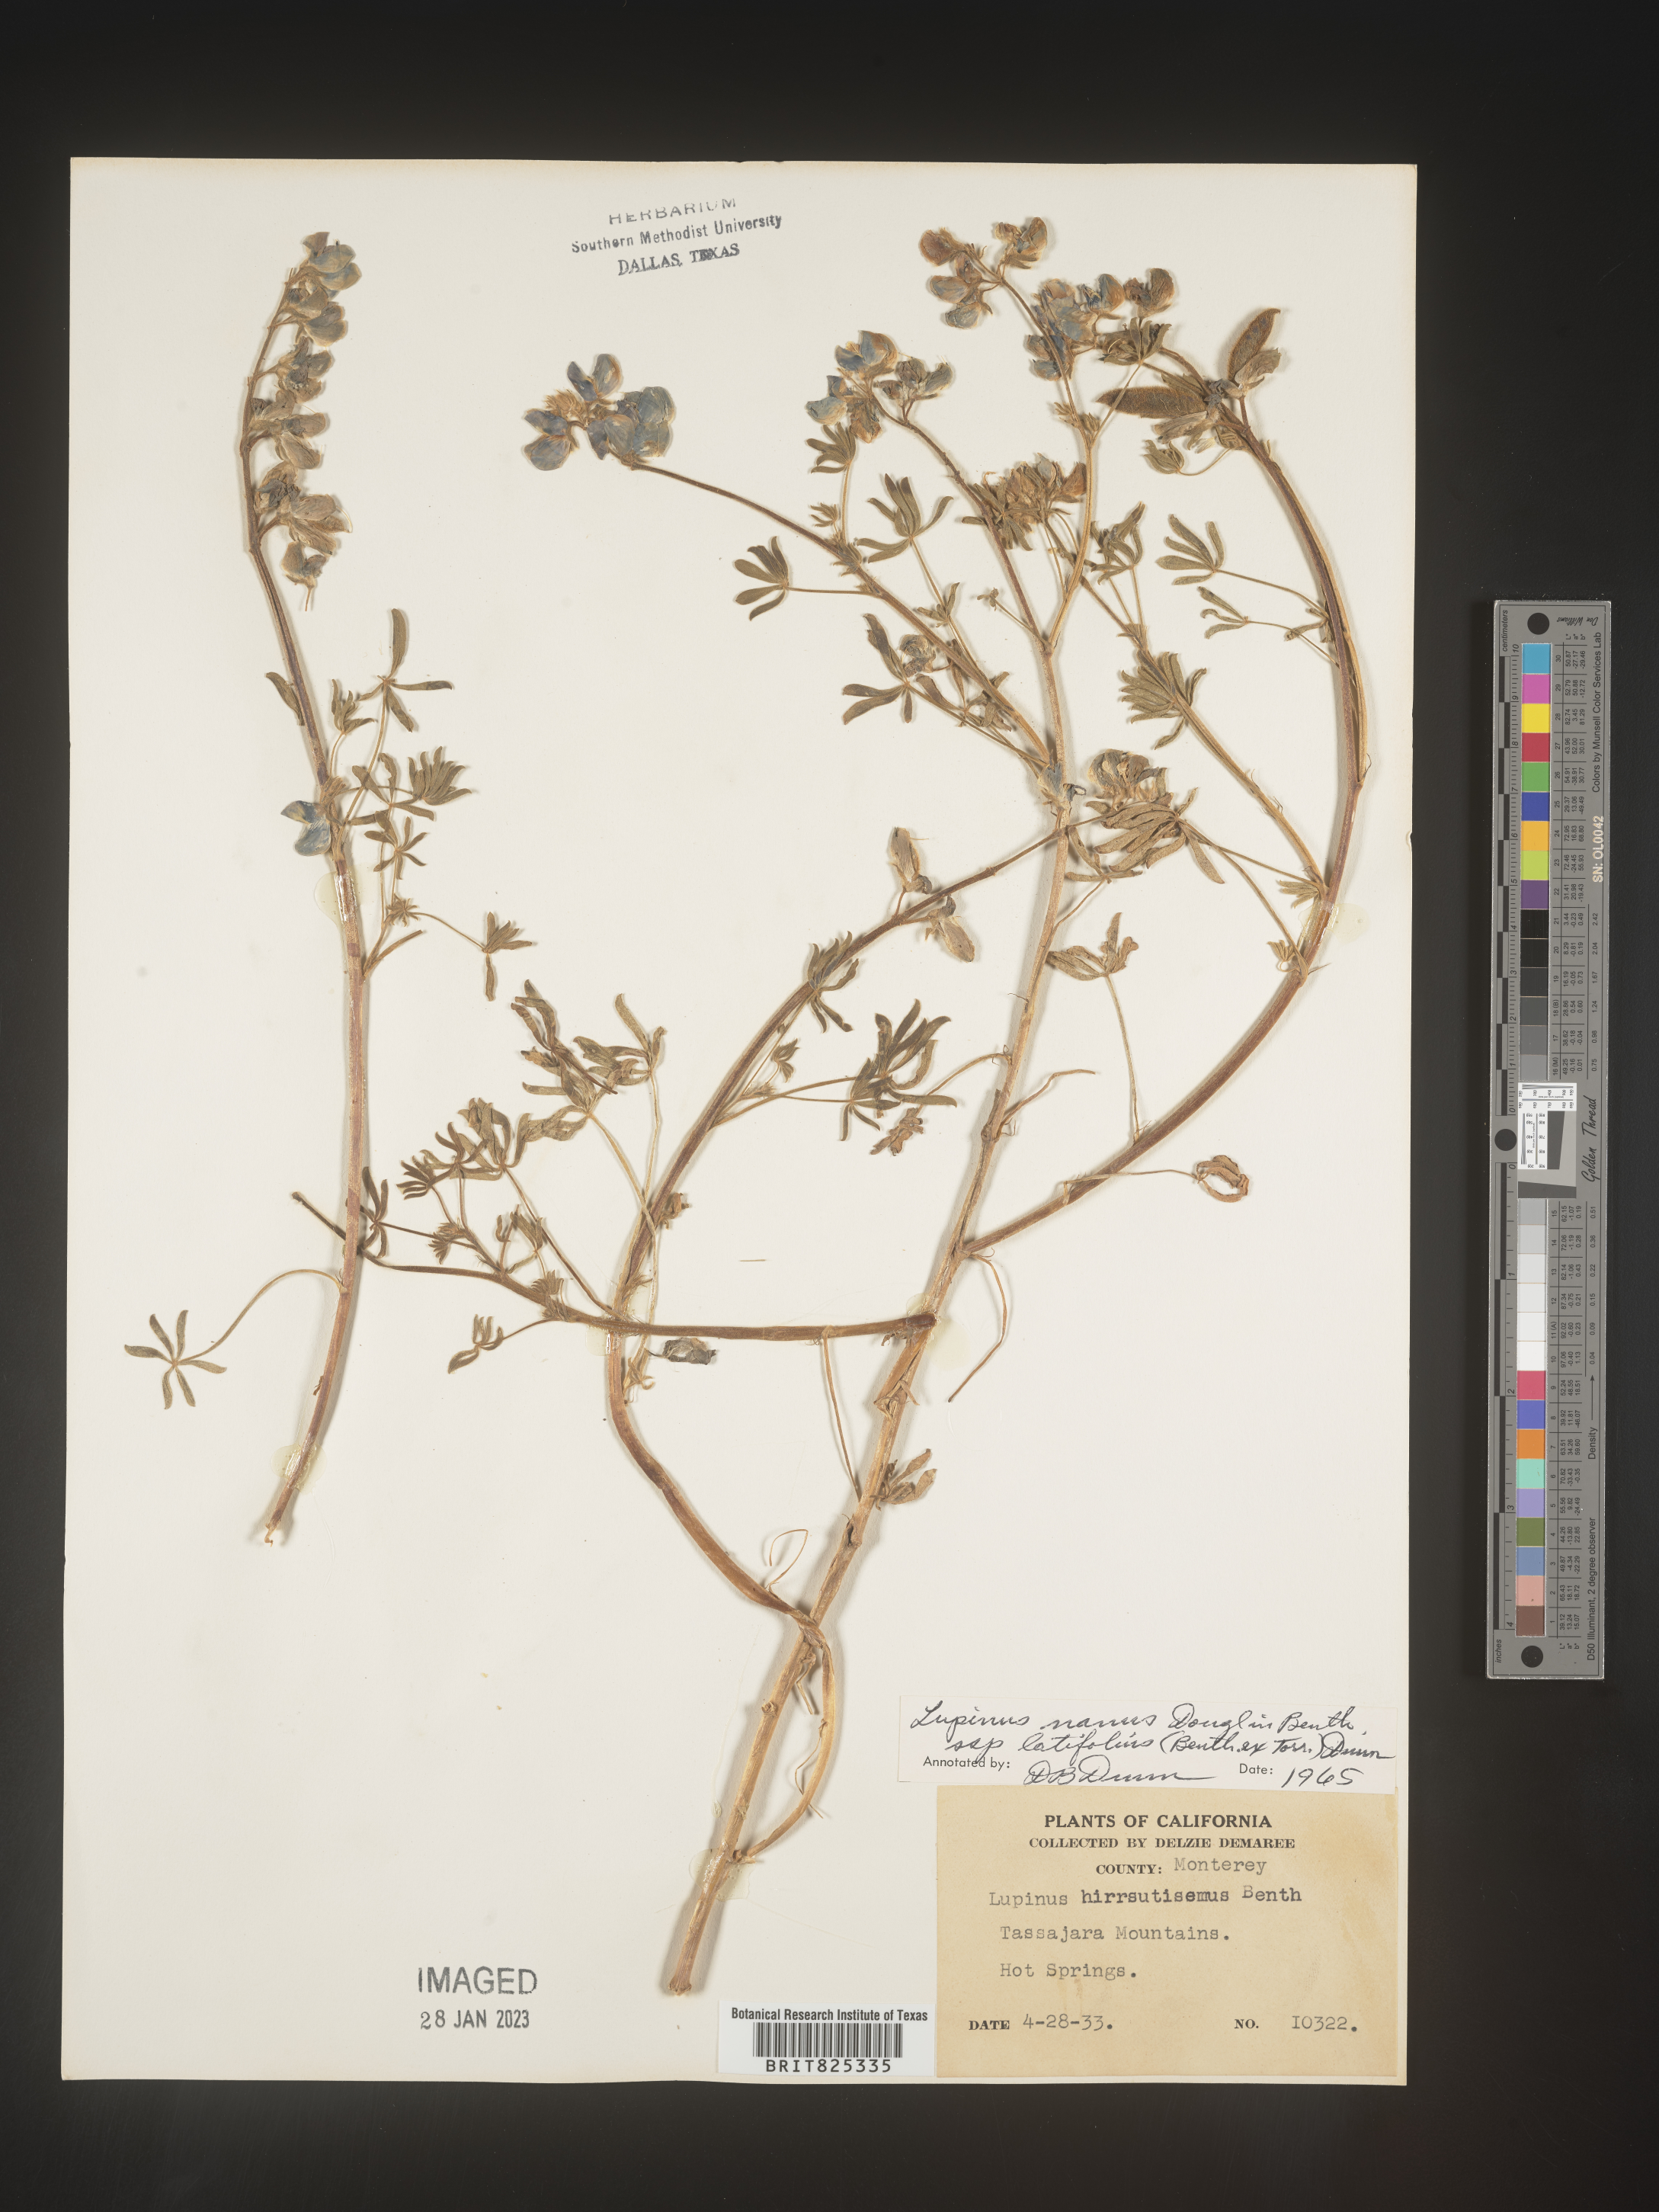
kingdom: Plantae
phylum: Tracheophyta
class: Magnoliopsida
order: Fabales
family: Fabaceae
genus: Lupinus
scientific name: Lupinus nanus
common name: Orean blue lupin
